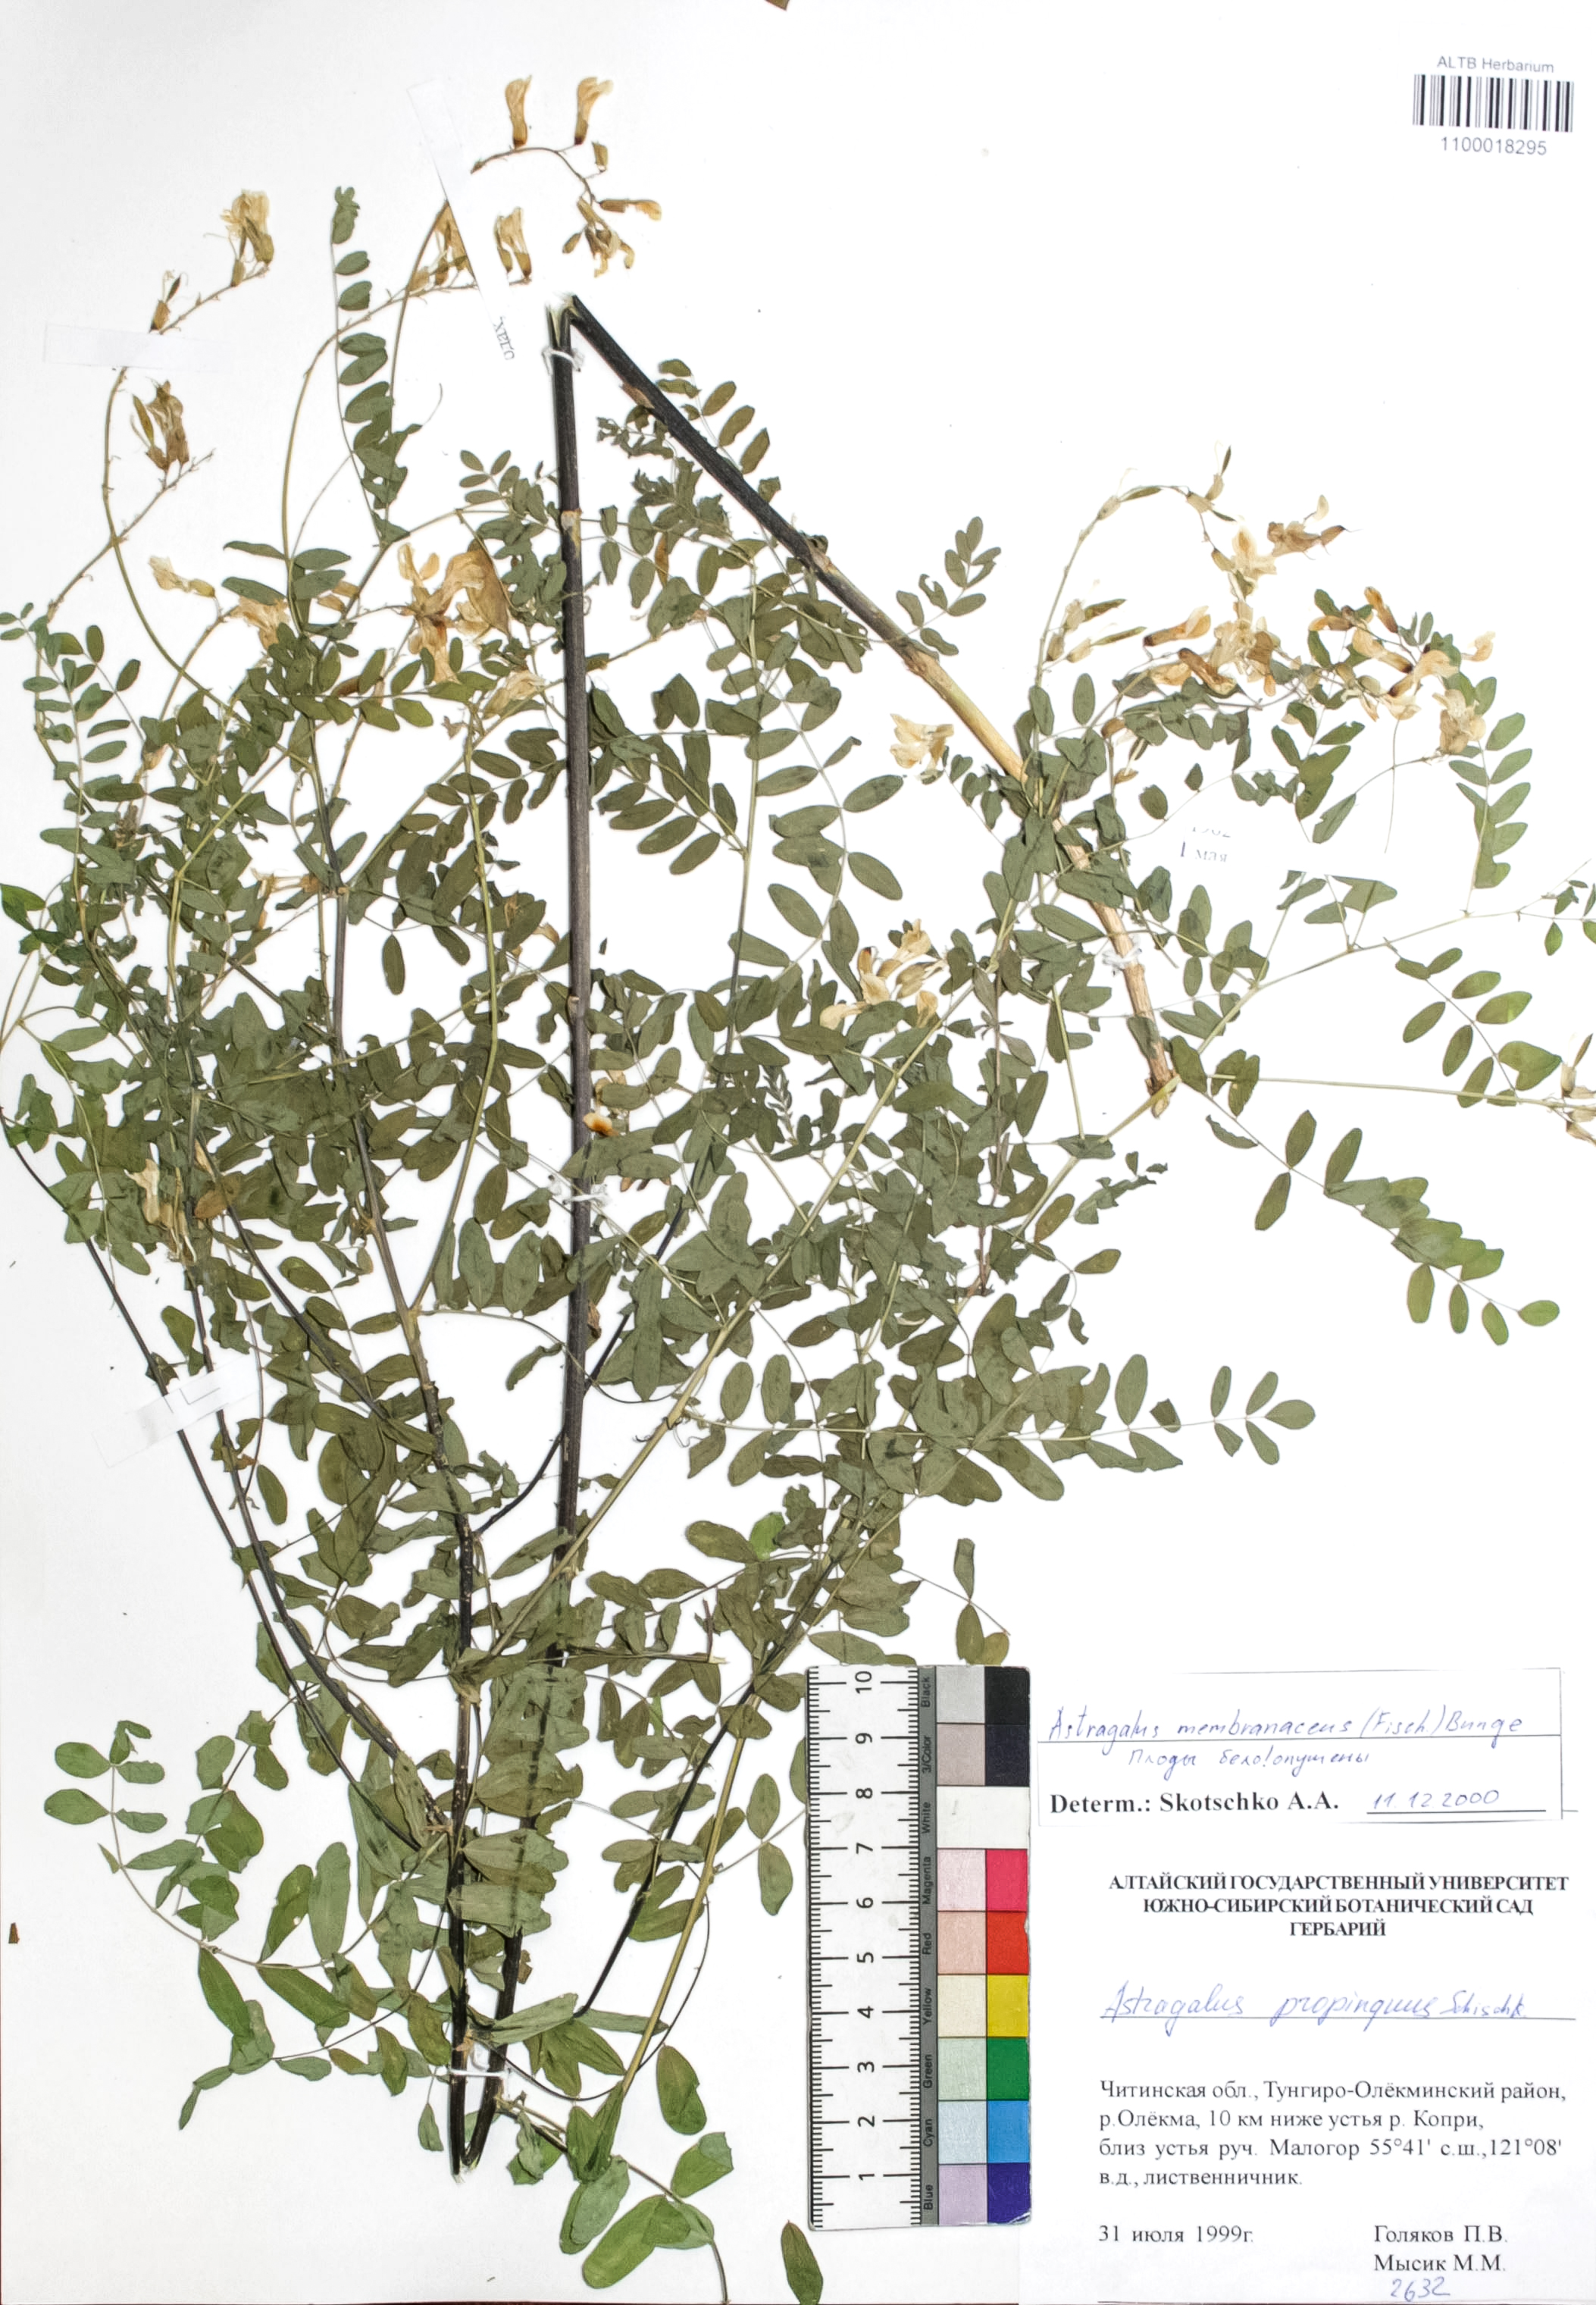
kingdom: Plantae
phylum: Tracheophyta
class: Magnoliopsida
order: Fabales
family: Fabaceae
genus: Astragalus
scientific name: Astragalus mongholicus
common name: Membranous milk-vetch
